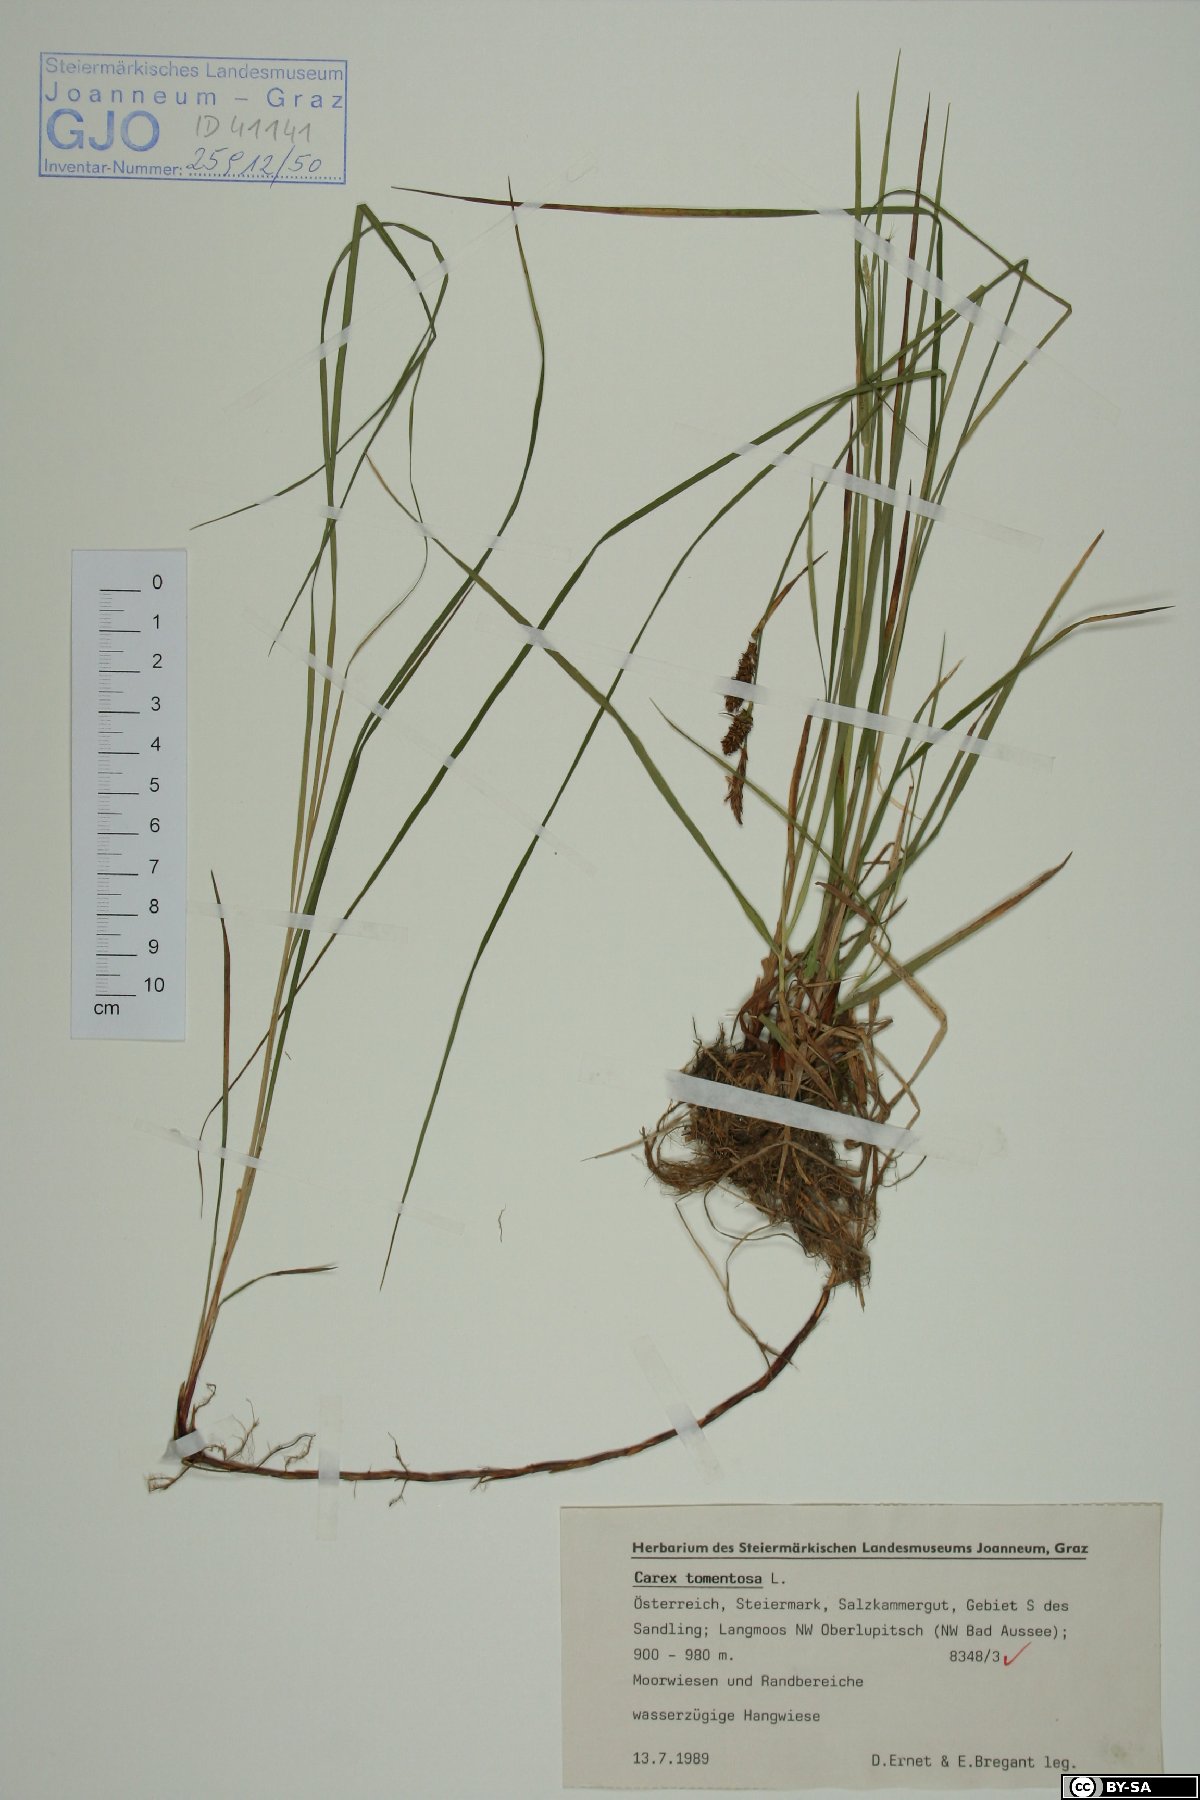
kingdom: Plantae
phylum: Tracheophyta
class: Liliopsida
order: Poales
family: Cyperaceae
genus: Carex
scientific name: Carex tomentosa
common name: Downy-fruited sedge
